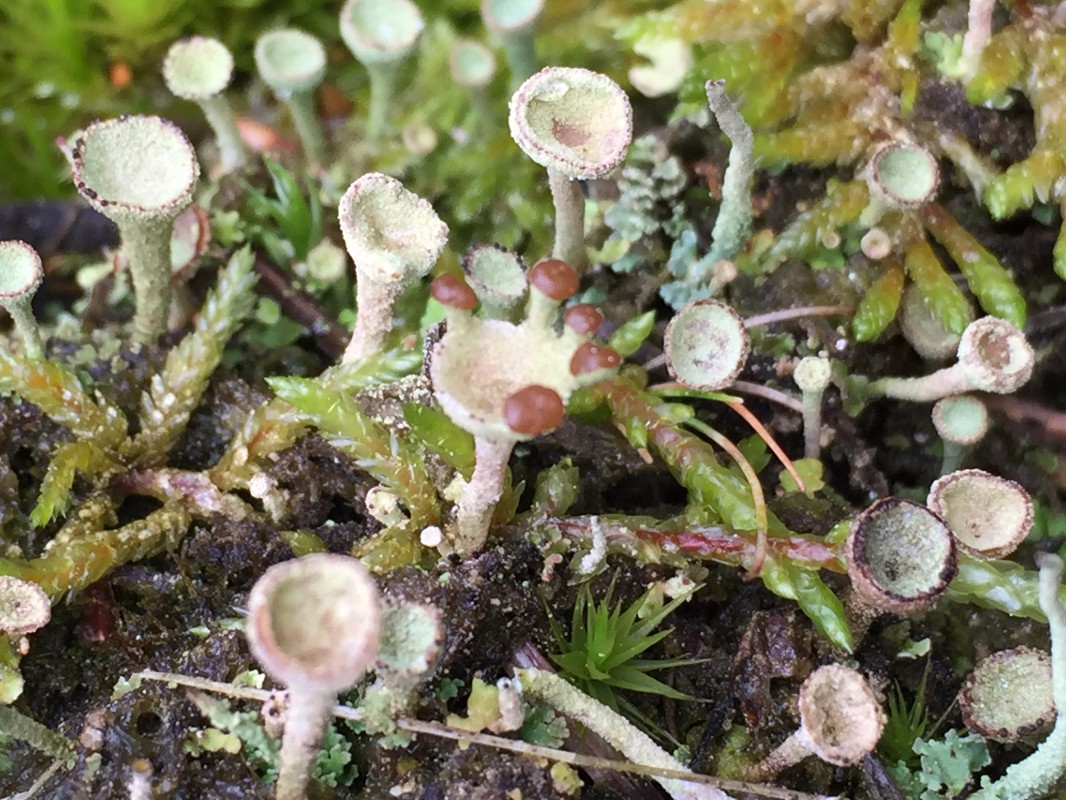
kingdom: Fungi
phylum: Ascomycota
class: Lecanoromycetes
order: Lecanorales
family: Cladoniaceae
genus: Cladonia
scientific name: Cladonia
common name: brungrøn bægerlav
